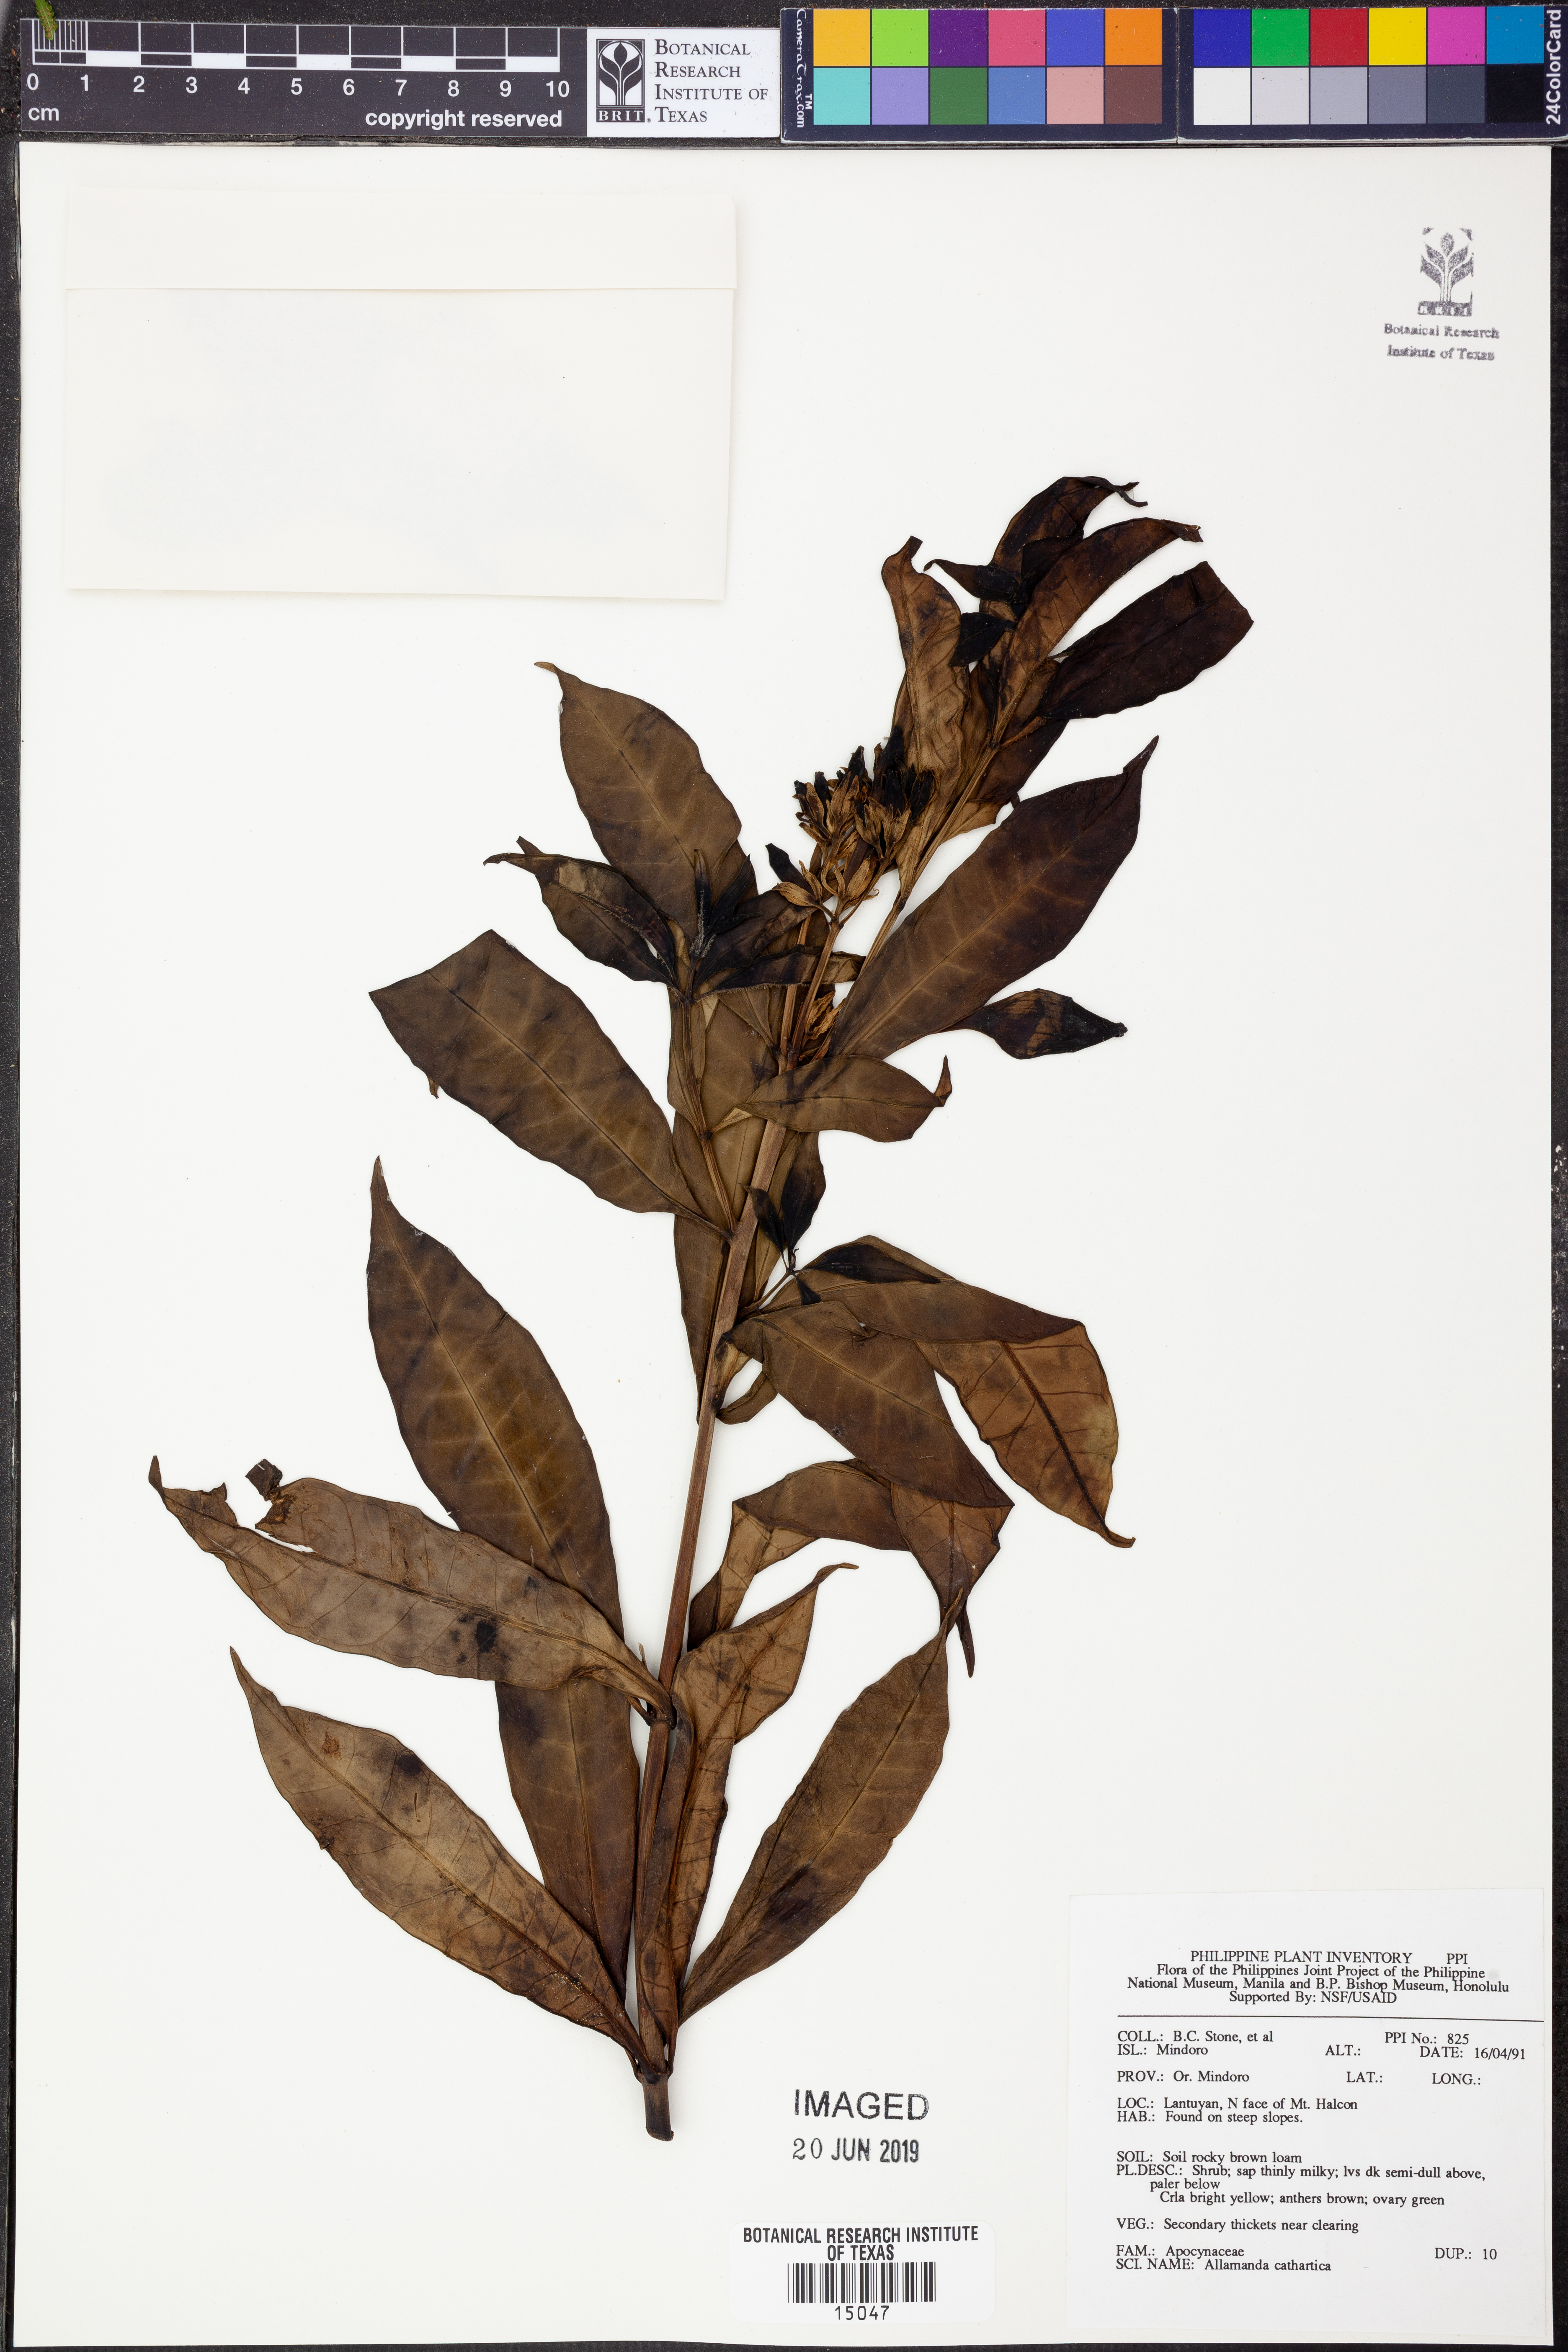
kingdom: Plantae
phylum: Tracheophyta
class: Magnoliopsida
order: Gentianales
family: Apocynaceae
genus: Allamanda
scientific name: Allamanda schottii
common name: Bush allamanda
